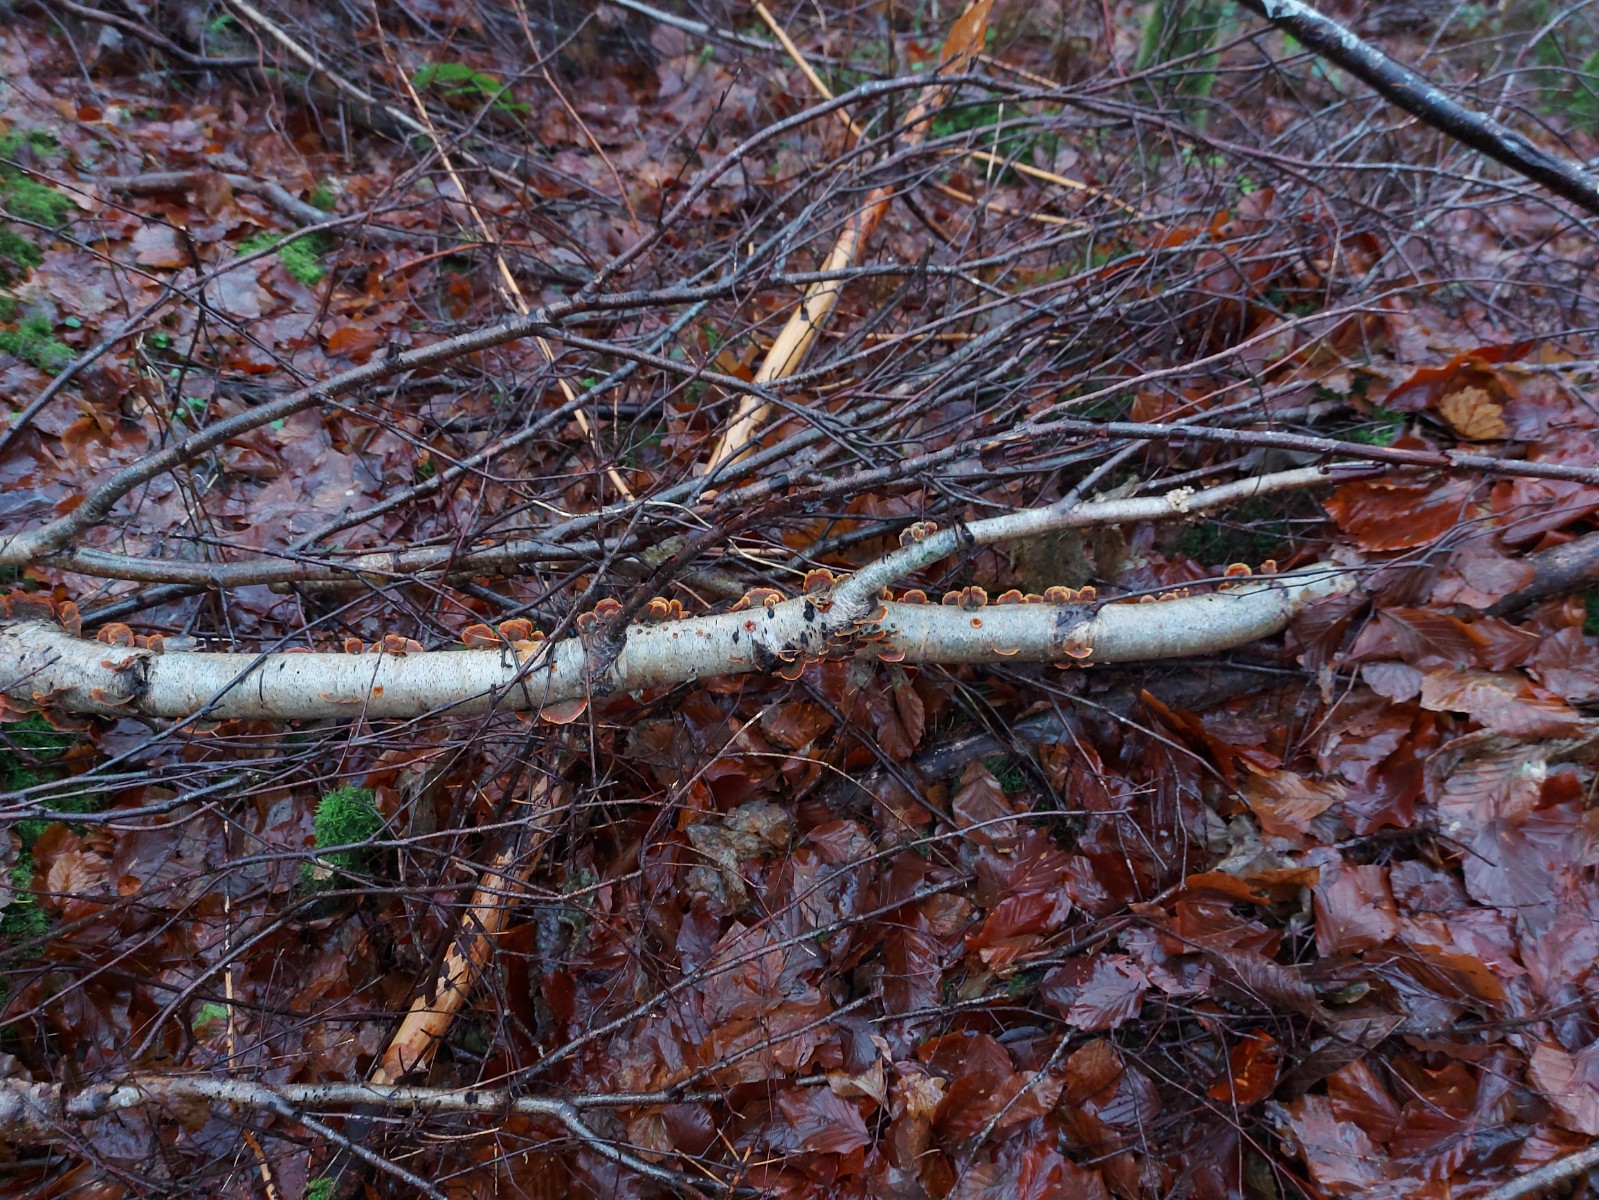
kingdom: Fungi
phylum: Basidiomycota
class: Agaricomycetes
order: Russulales
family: Stereaceae
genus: Stereum
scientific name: Stereum subtomentosum
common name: smuk lædersvamp
